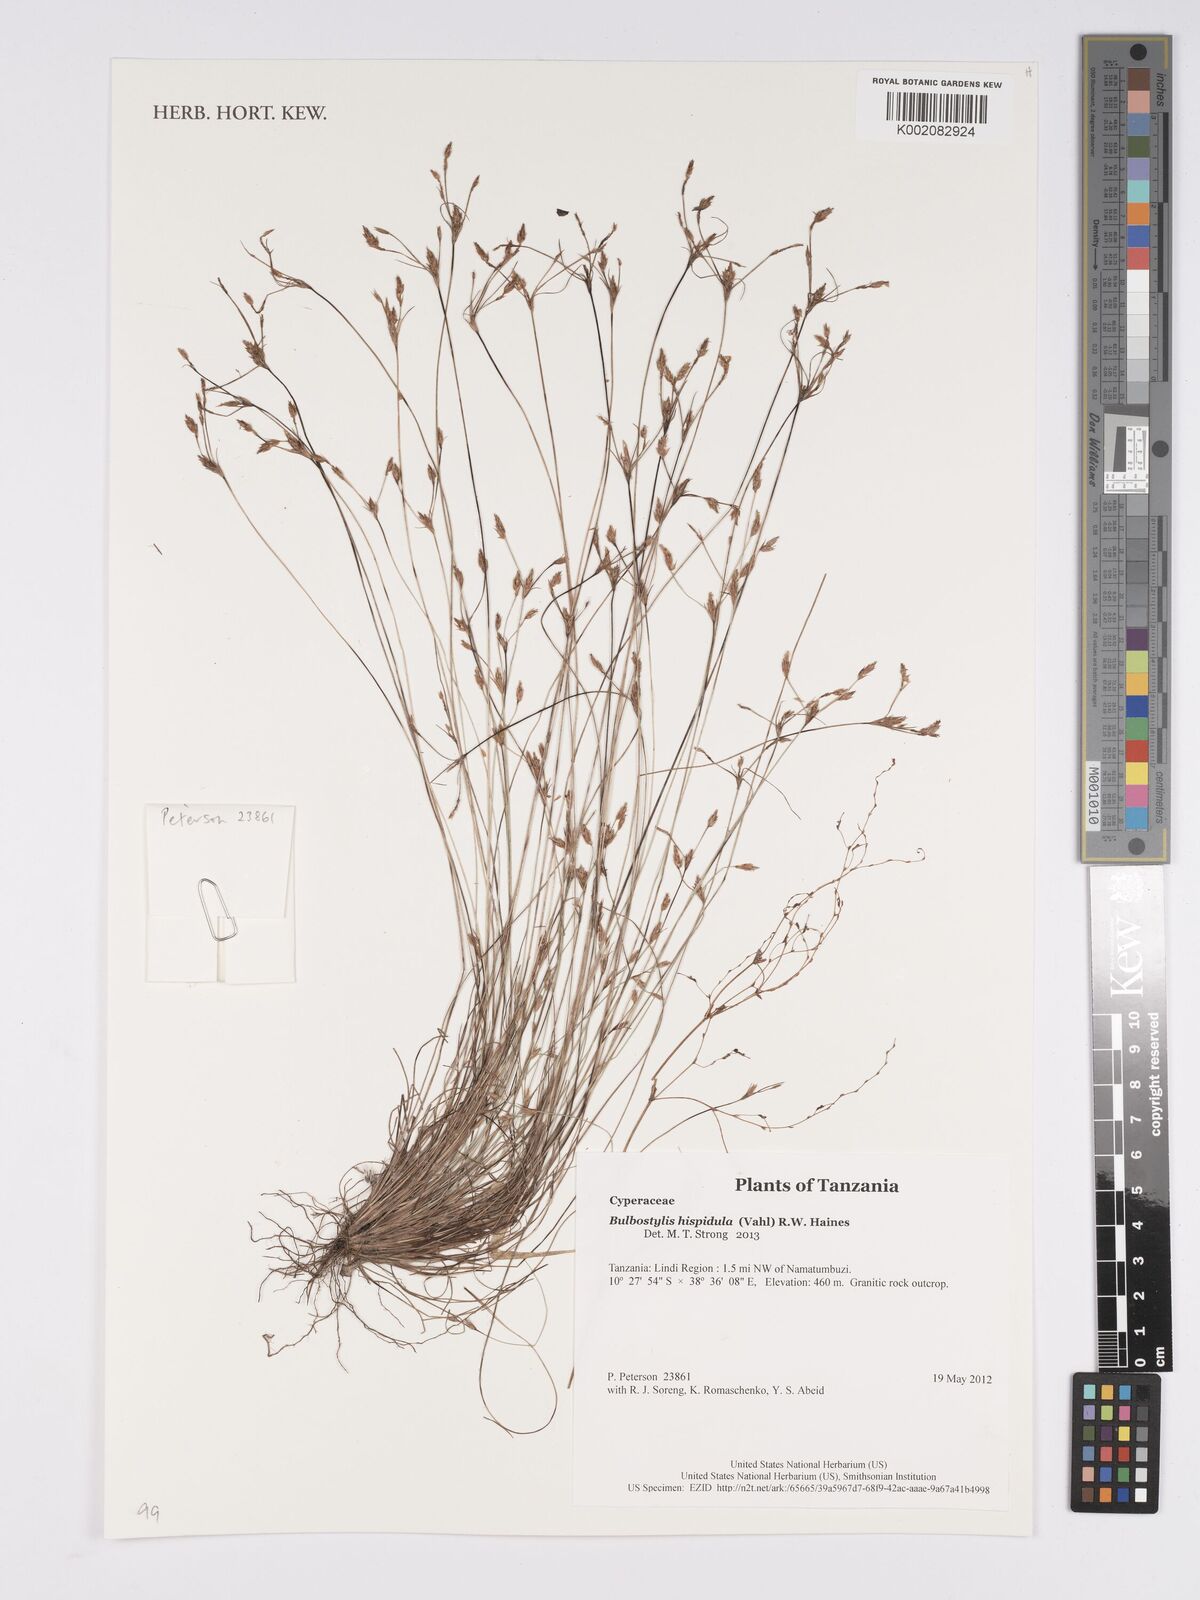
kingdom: Plantae
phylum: Tracheophyta
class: Liliopsida
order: Poales
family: Cyperaceae
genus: Bulbostylis
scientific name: Bulbostylis hispidula
